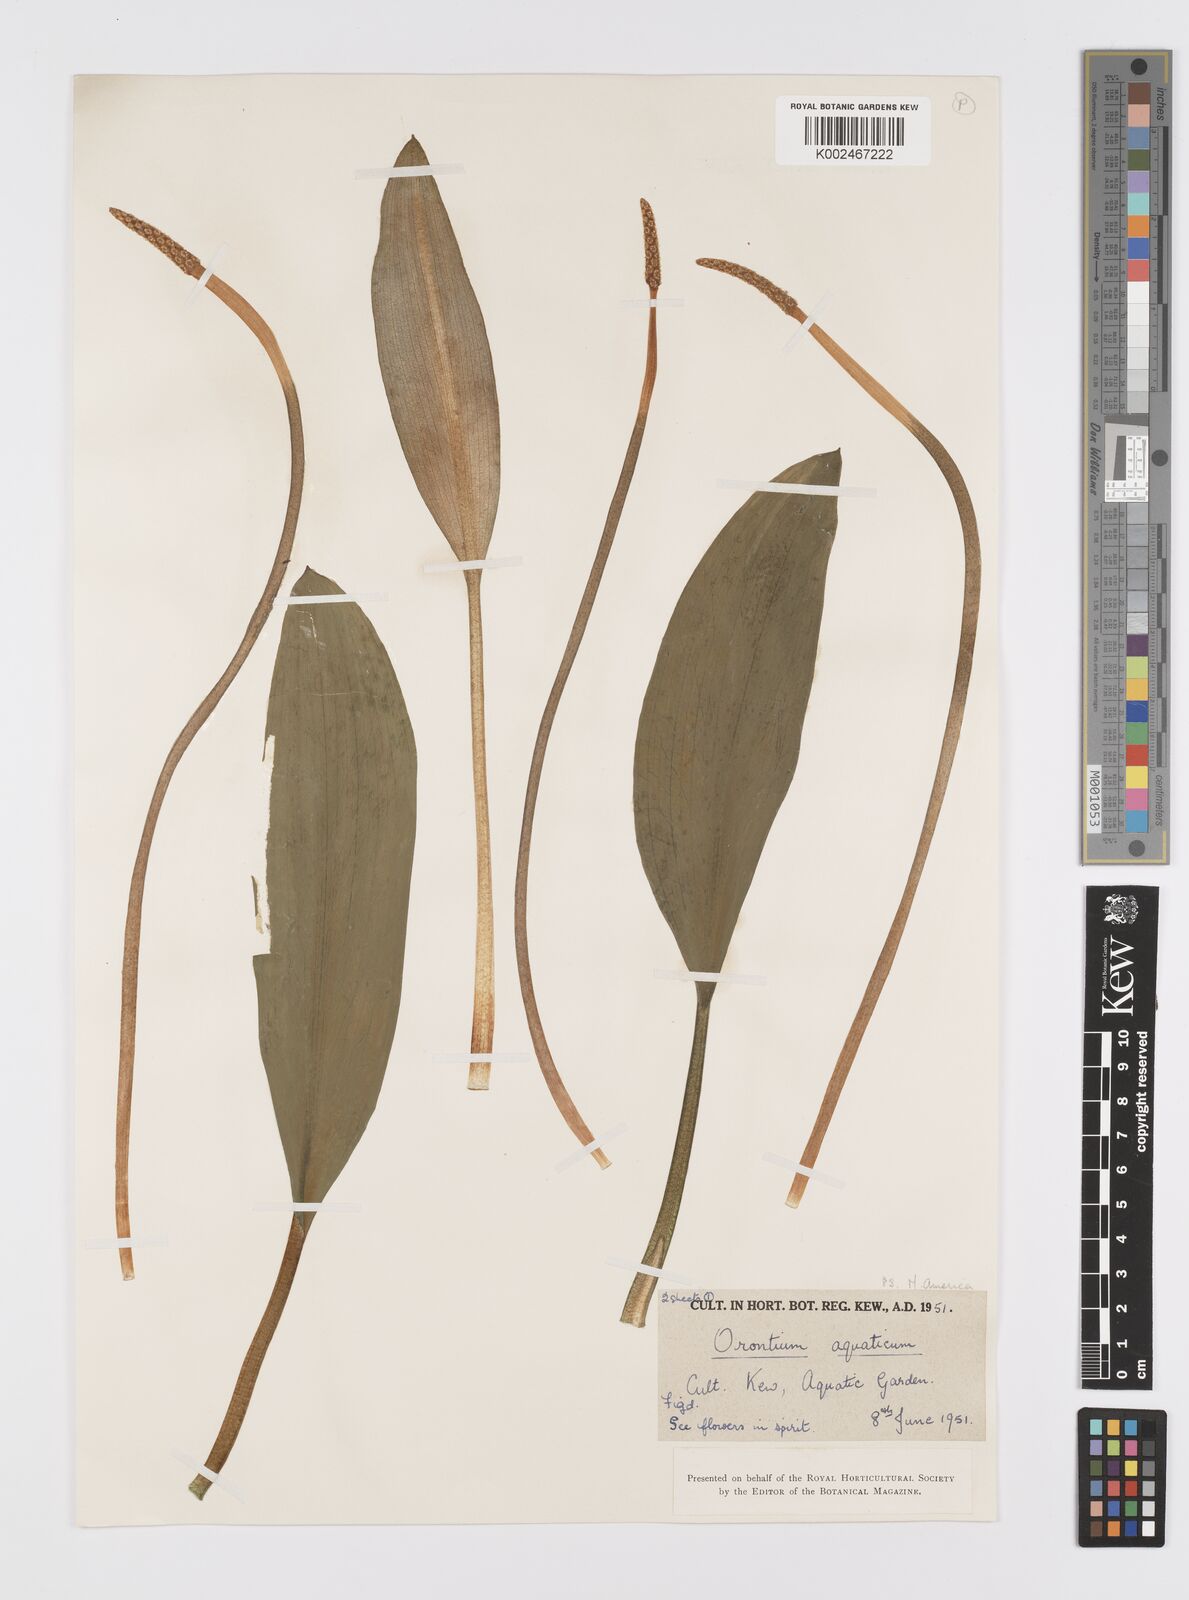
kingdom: Plantae
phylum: Tracheophyta
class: Liliopsida
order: Alismatales
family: Araceae
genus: Orontium
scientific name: Orontium aquaticum
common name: Golden-club
